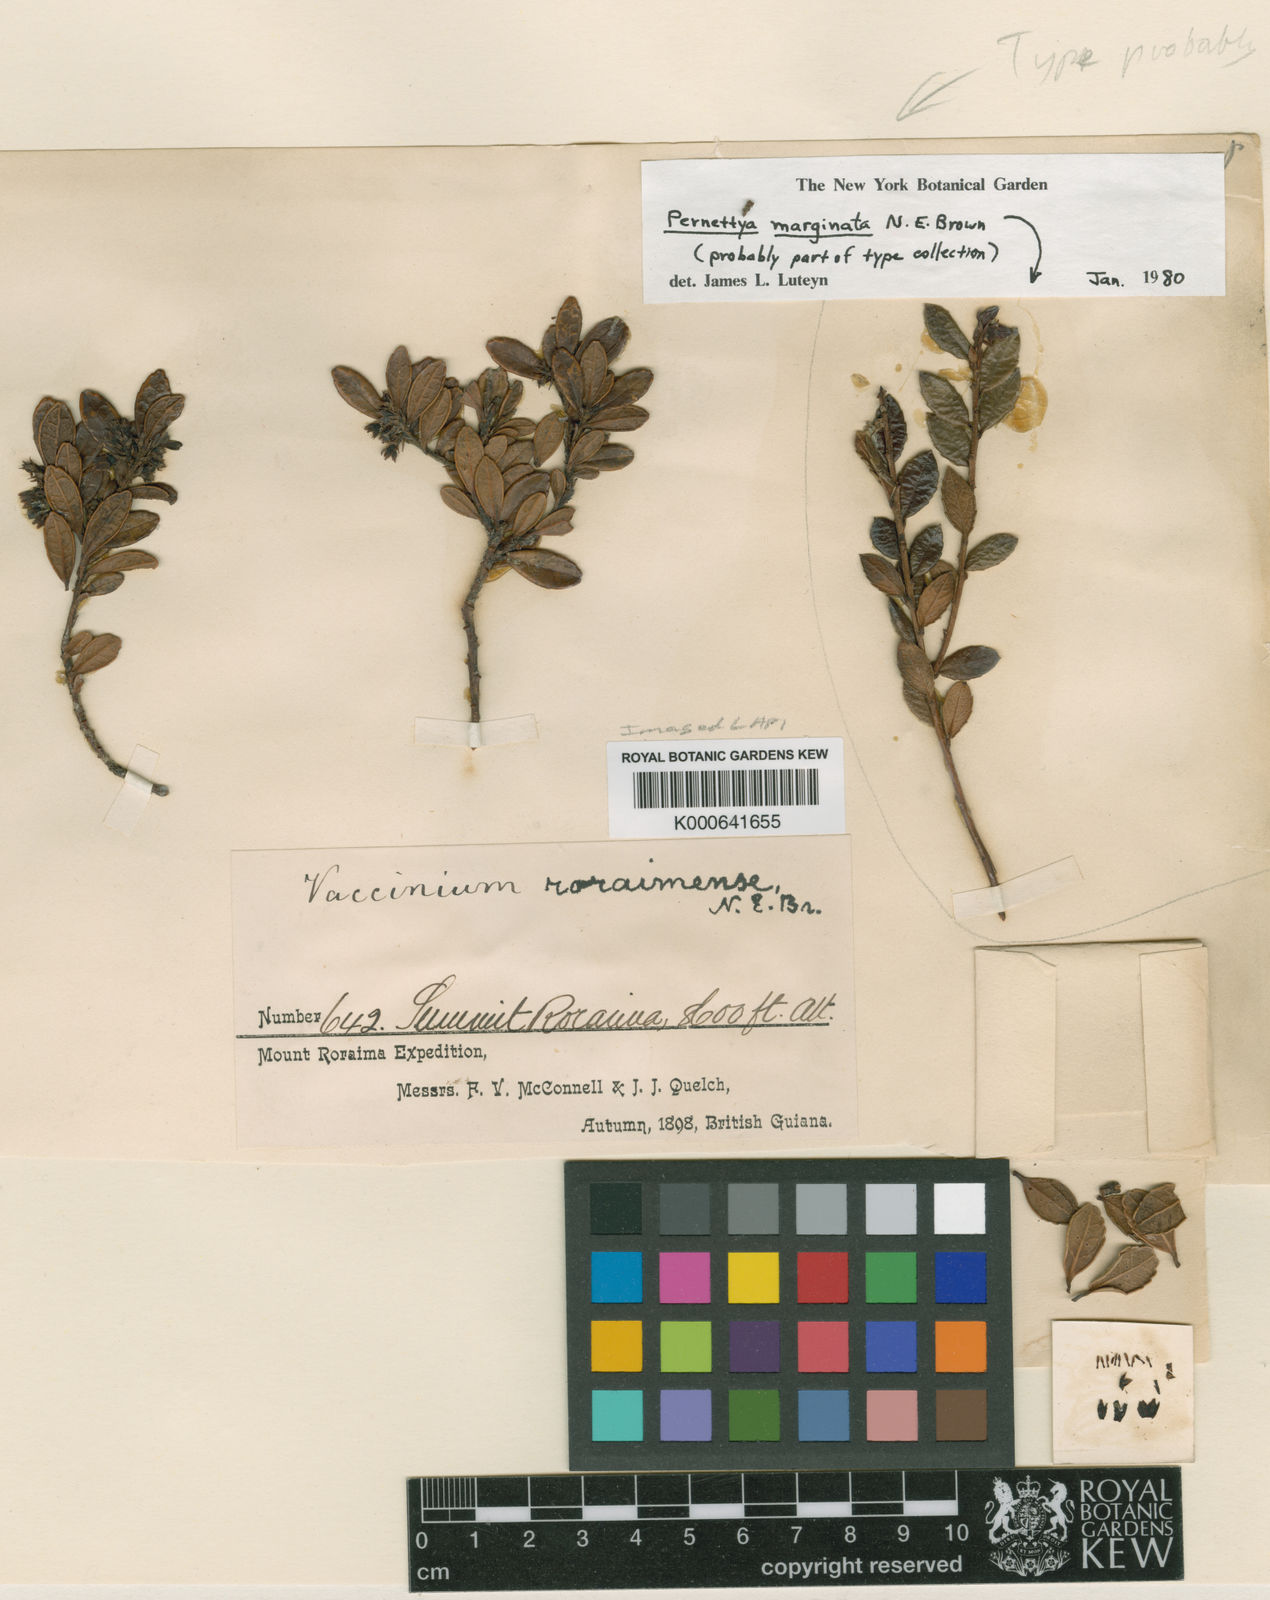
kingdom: Plantae
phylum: Tracheophyta
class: Magnoliopsida
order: Ericales
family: Ericaceae
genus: Gaultheria
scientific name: Gaultheria marginata
